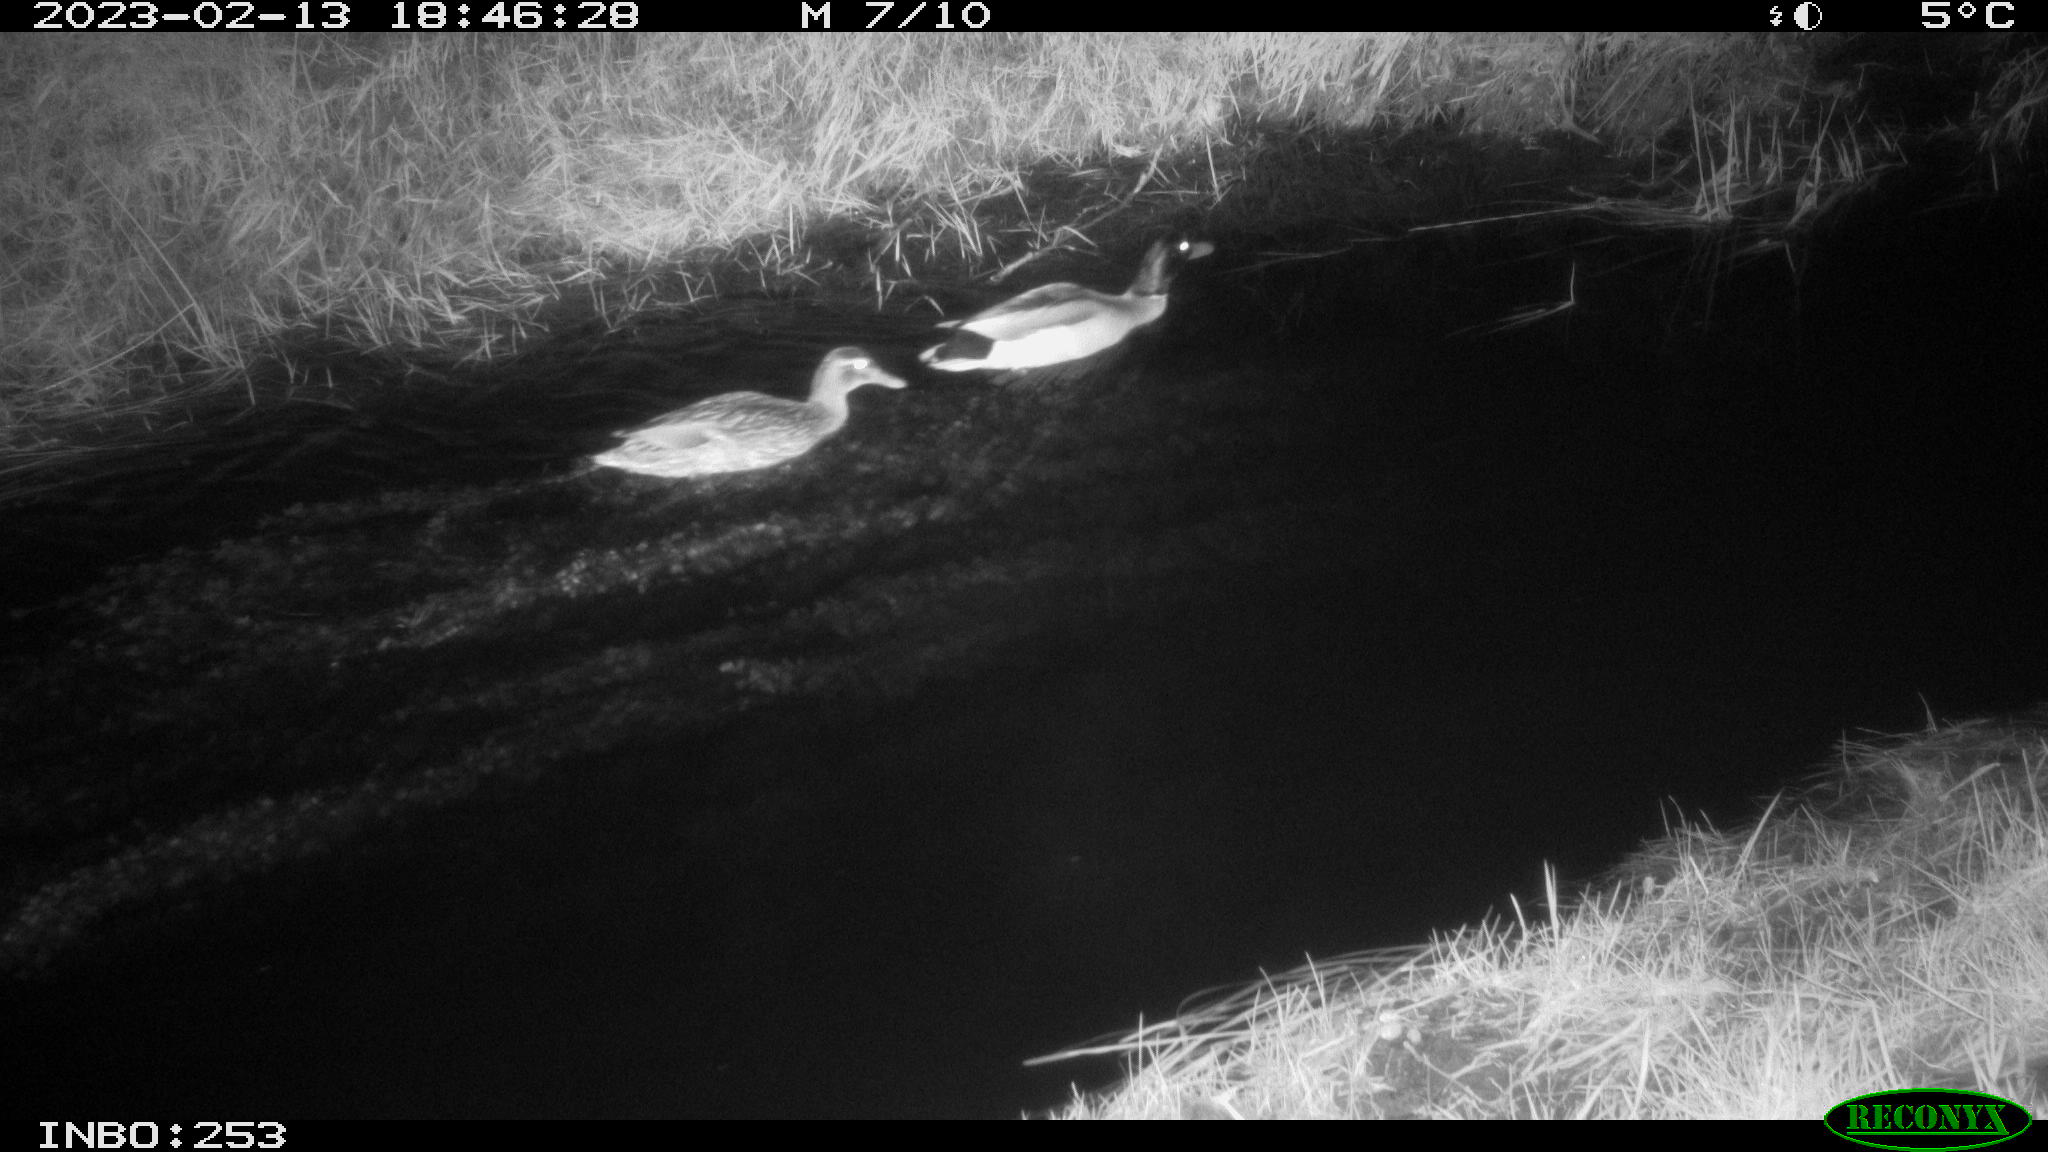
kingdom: Animalia
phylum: Chordata
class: Aves
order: Anseriformes
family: Anatidae
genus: Anas
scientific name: Anas
